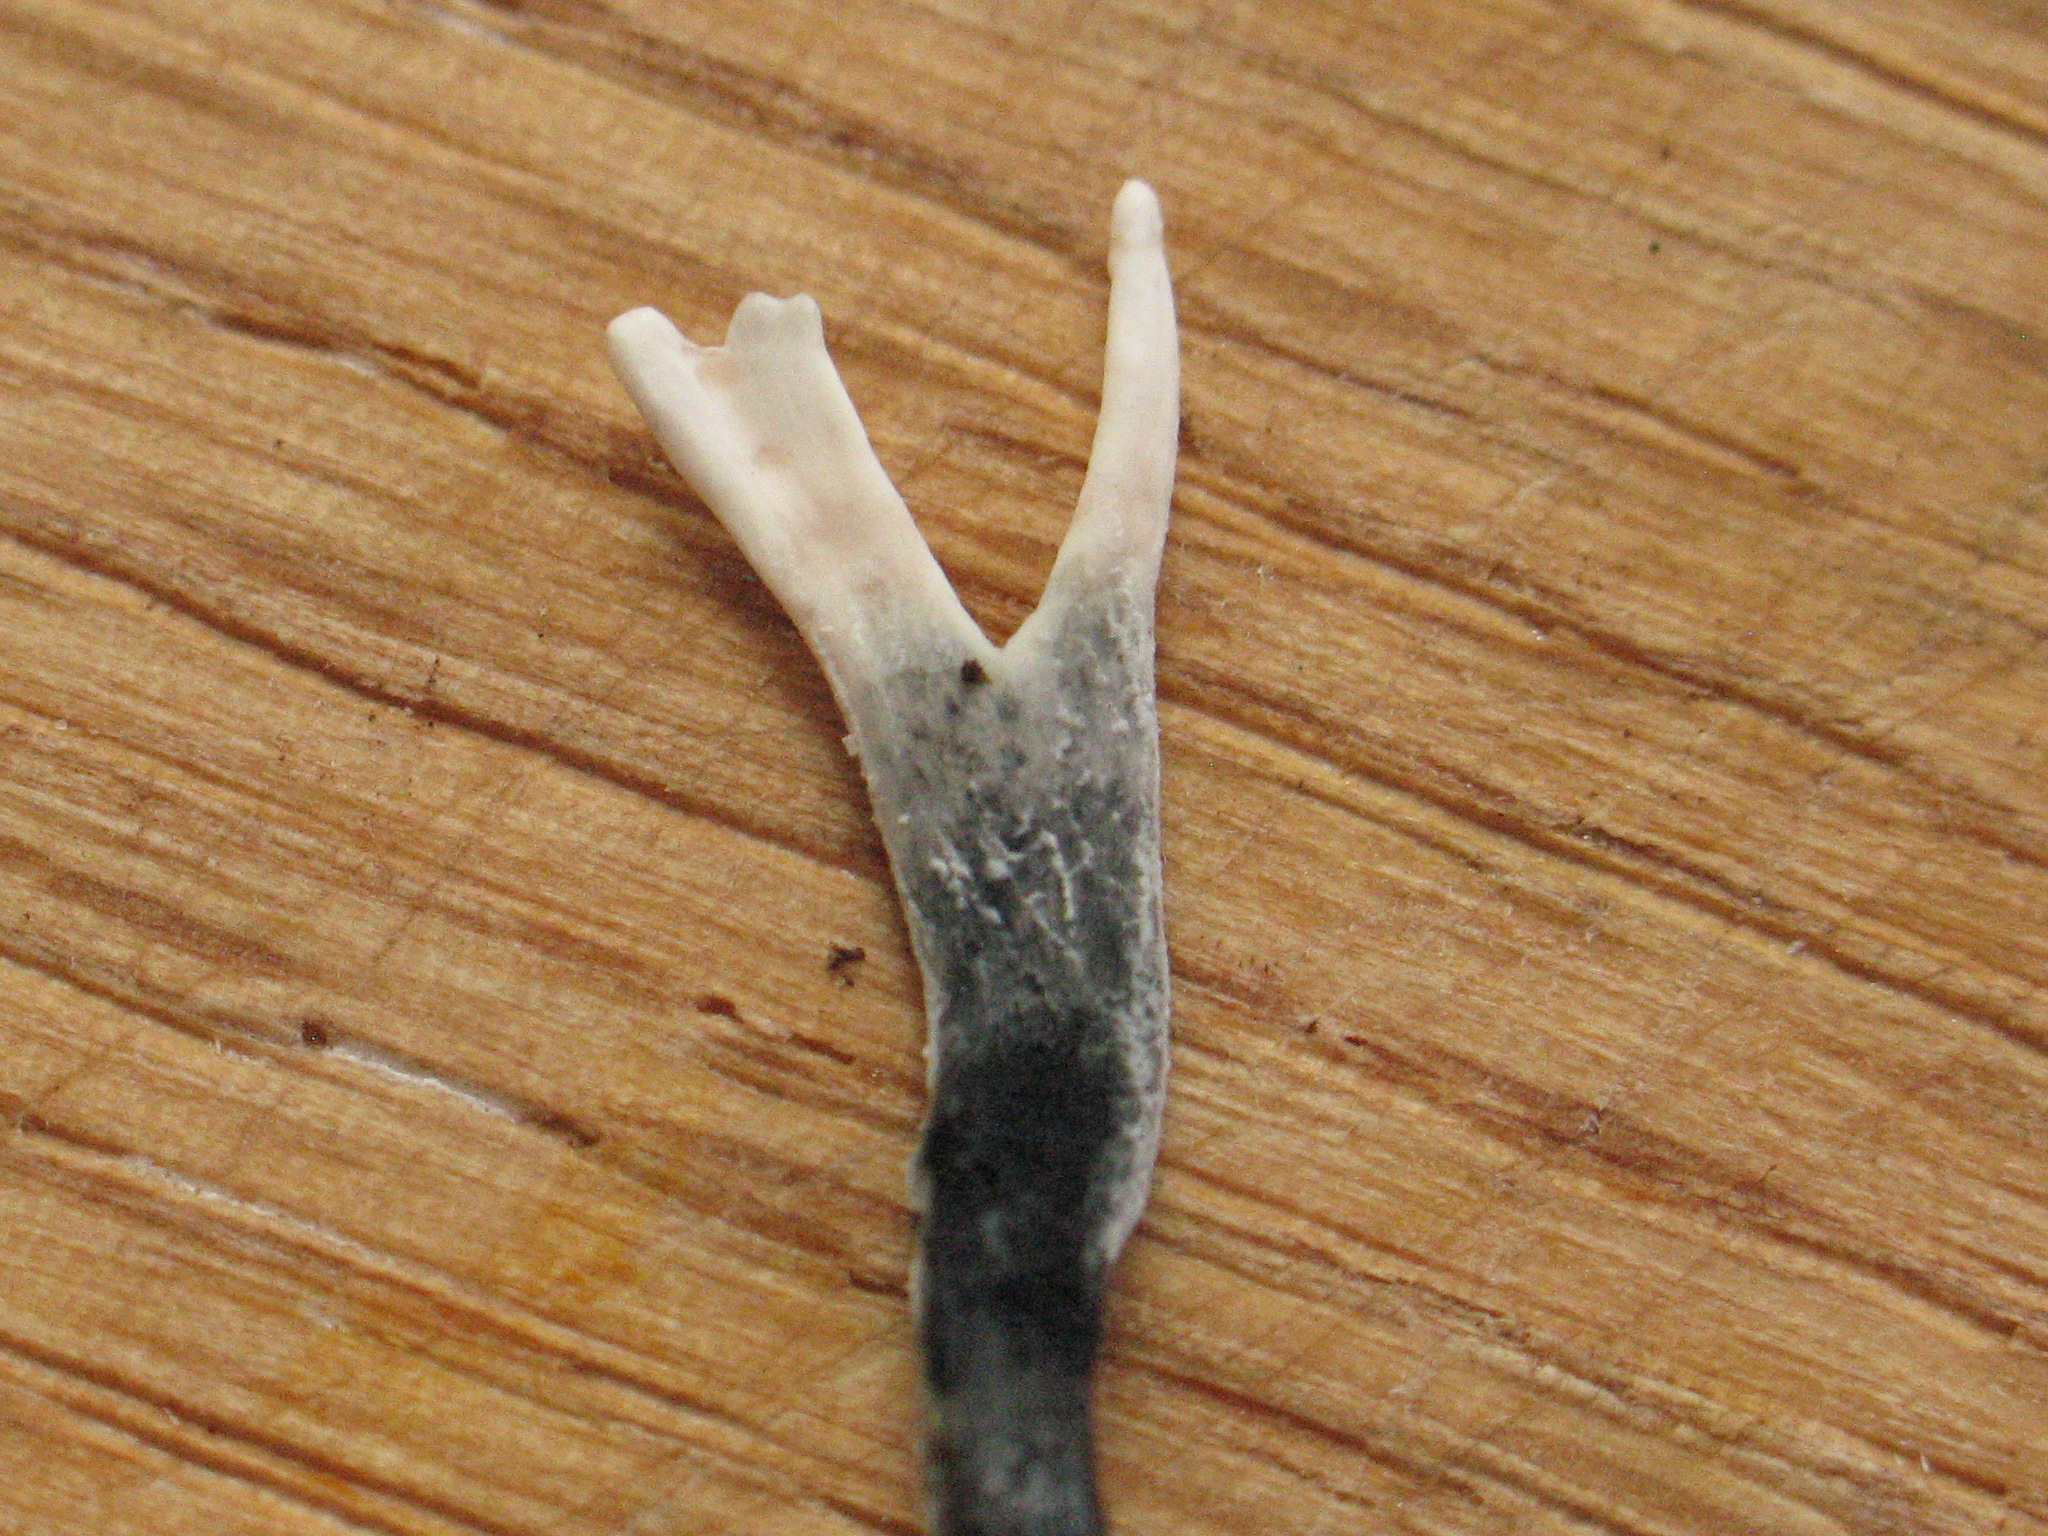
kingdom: Fungi
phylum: Ascomycota
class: Sordariomycetes
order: Xylariales
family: Xylariaceae
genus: Xylaria
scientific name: Xylaria hypoxylon
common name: grenet stødsvamp
